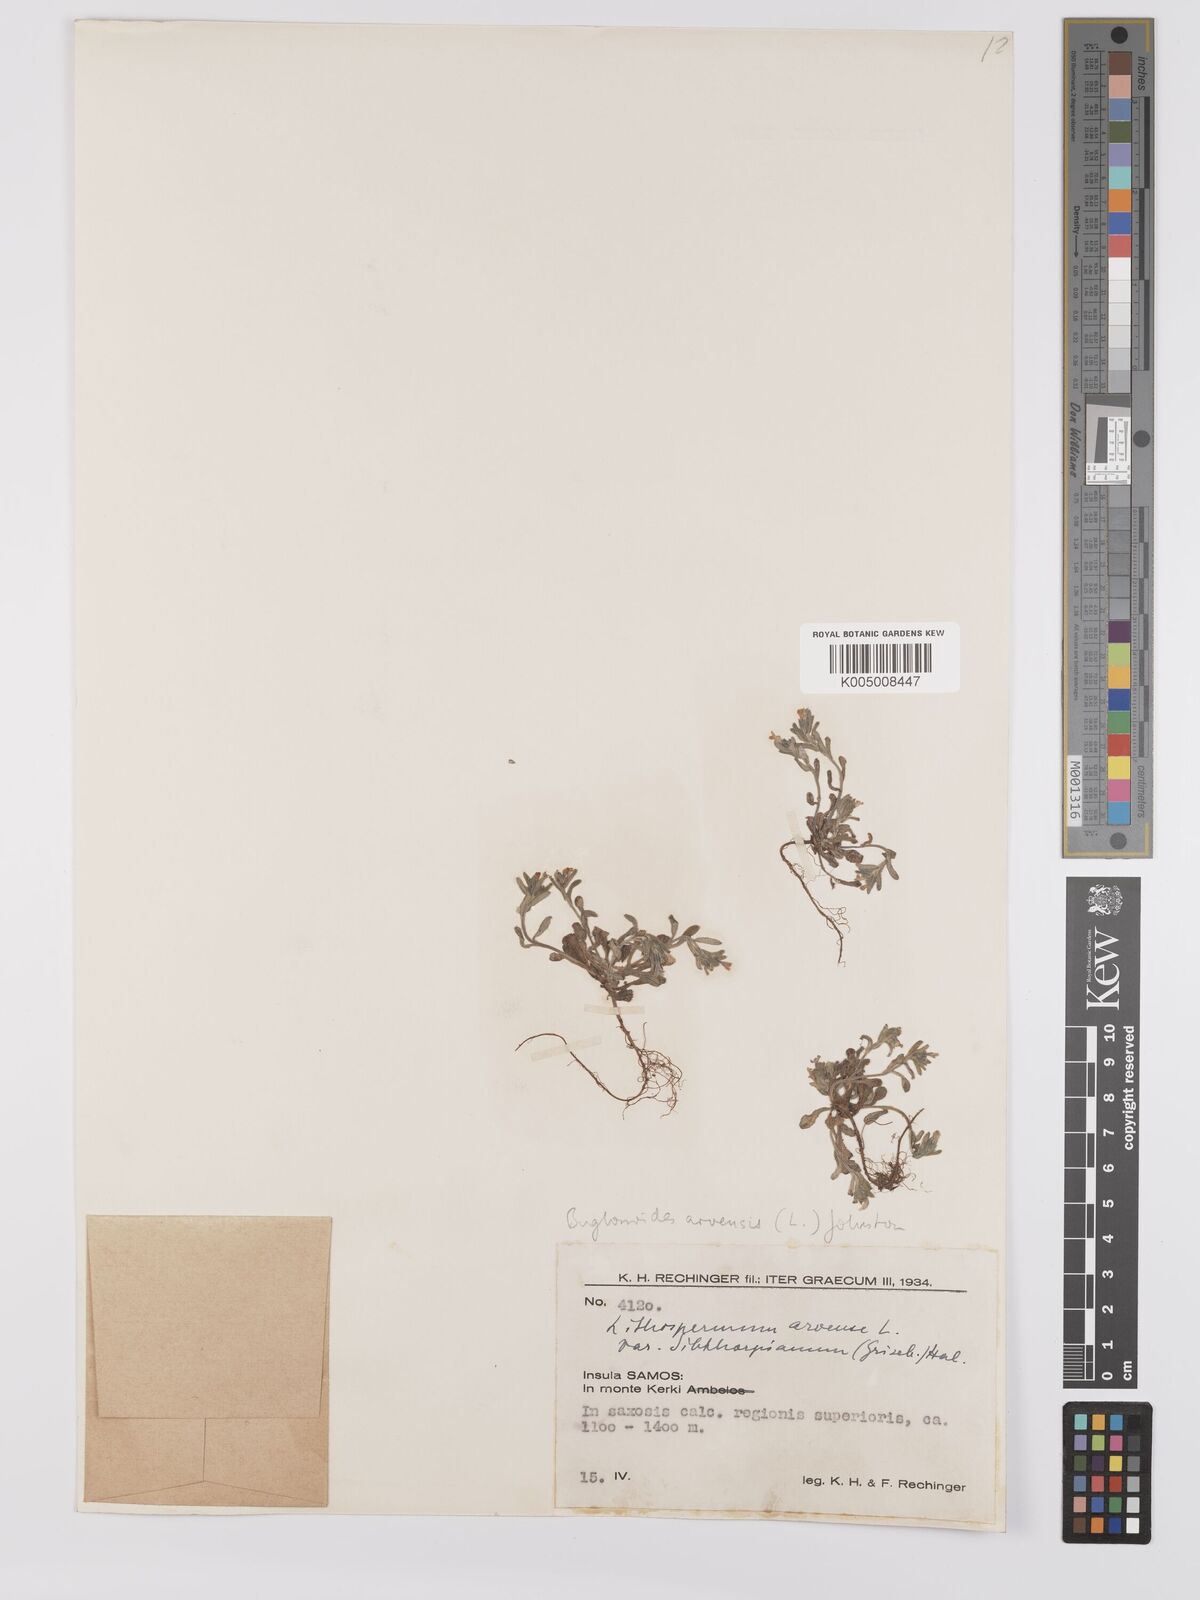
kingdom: Plantae
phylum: Tracheophyta
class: Magnoliopsida
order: Boraginales
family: Boraginaceae
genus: Buglossoides
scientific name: Buglossoides arvensis
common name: Corn gromwell
